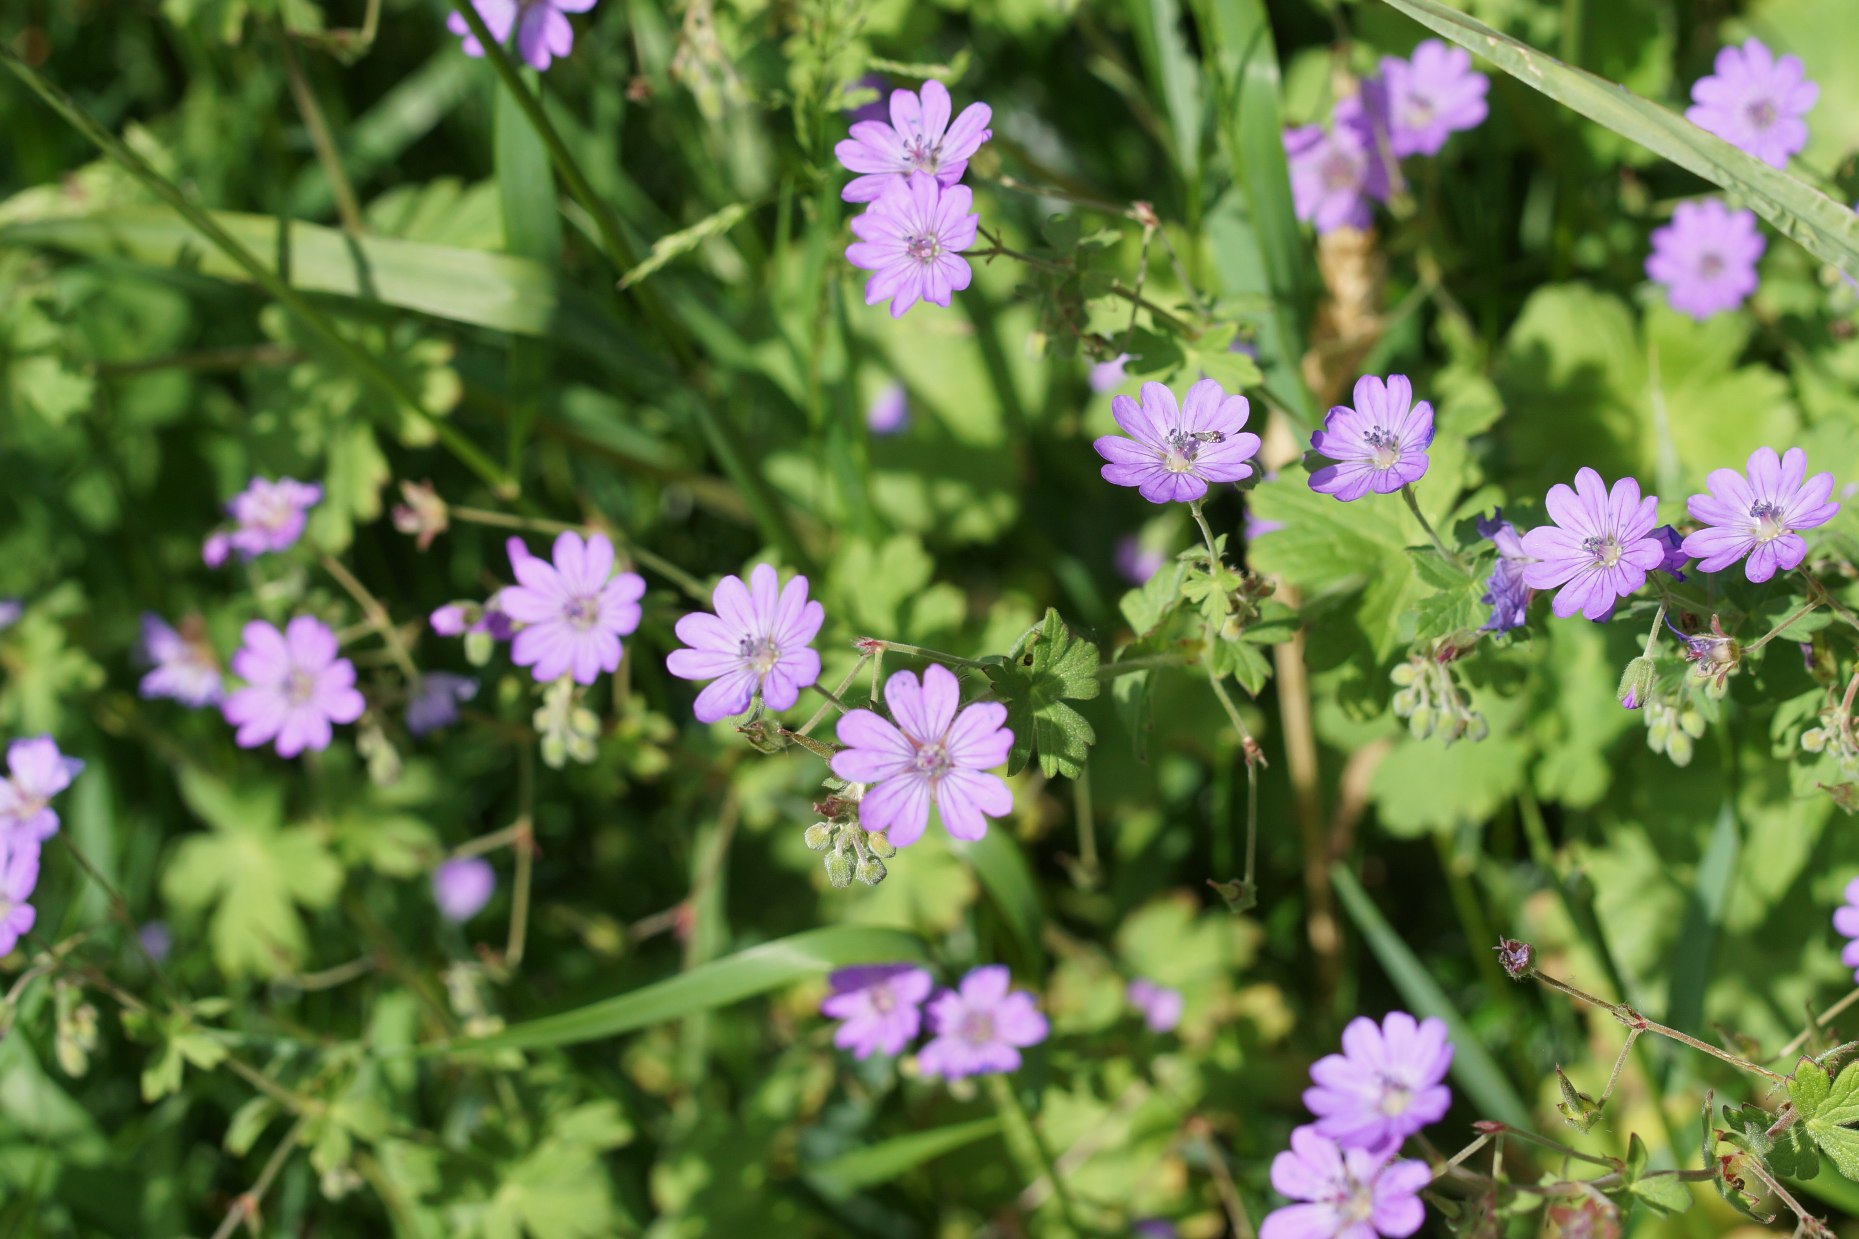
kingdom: Plantae
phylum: Tracheophyta
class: Magnoliopsida
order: Geraniales
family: Geraniaceae
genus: Geranium
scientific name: Geranium pyrenaicum
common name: Pyrenæisk storkenæb
